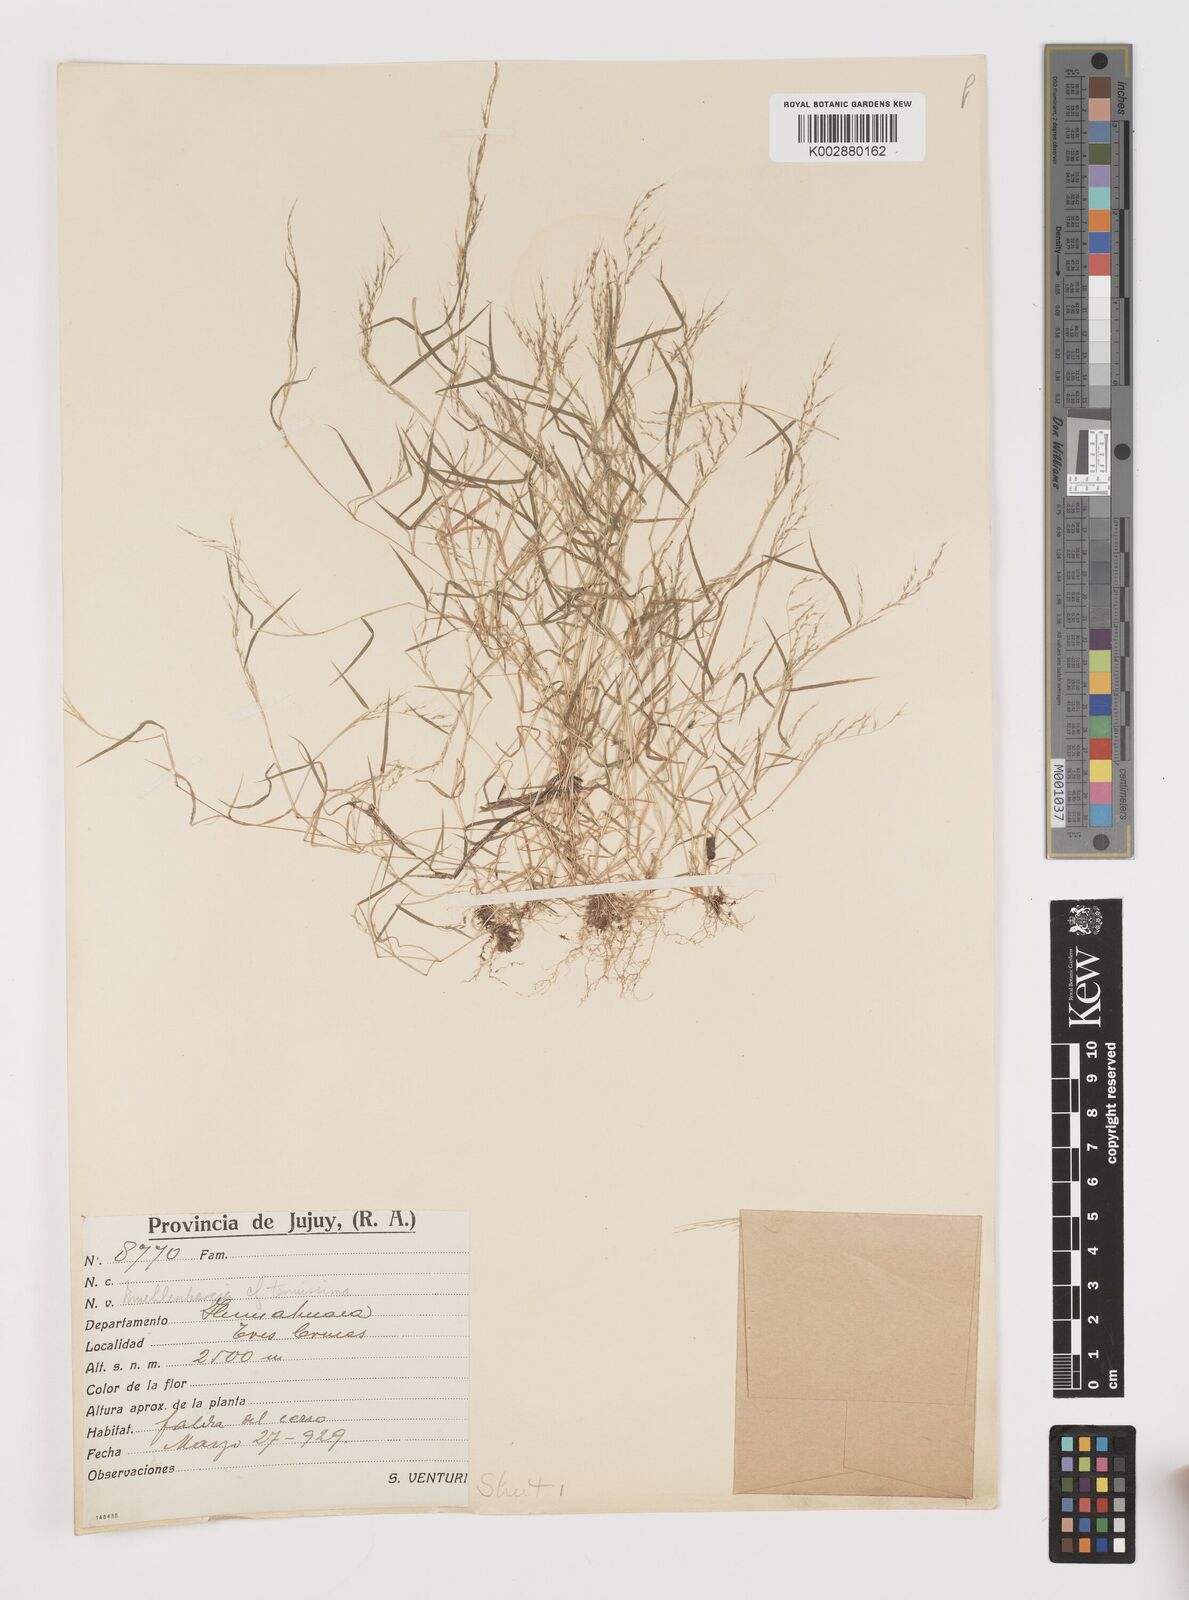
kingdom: Plantae
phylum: Tracheophyta
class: Liliopsida
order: Poales
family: Poaceae
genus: Muhlenbergia
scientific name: Muhlenbergia tenuissima
